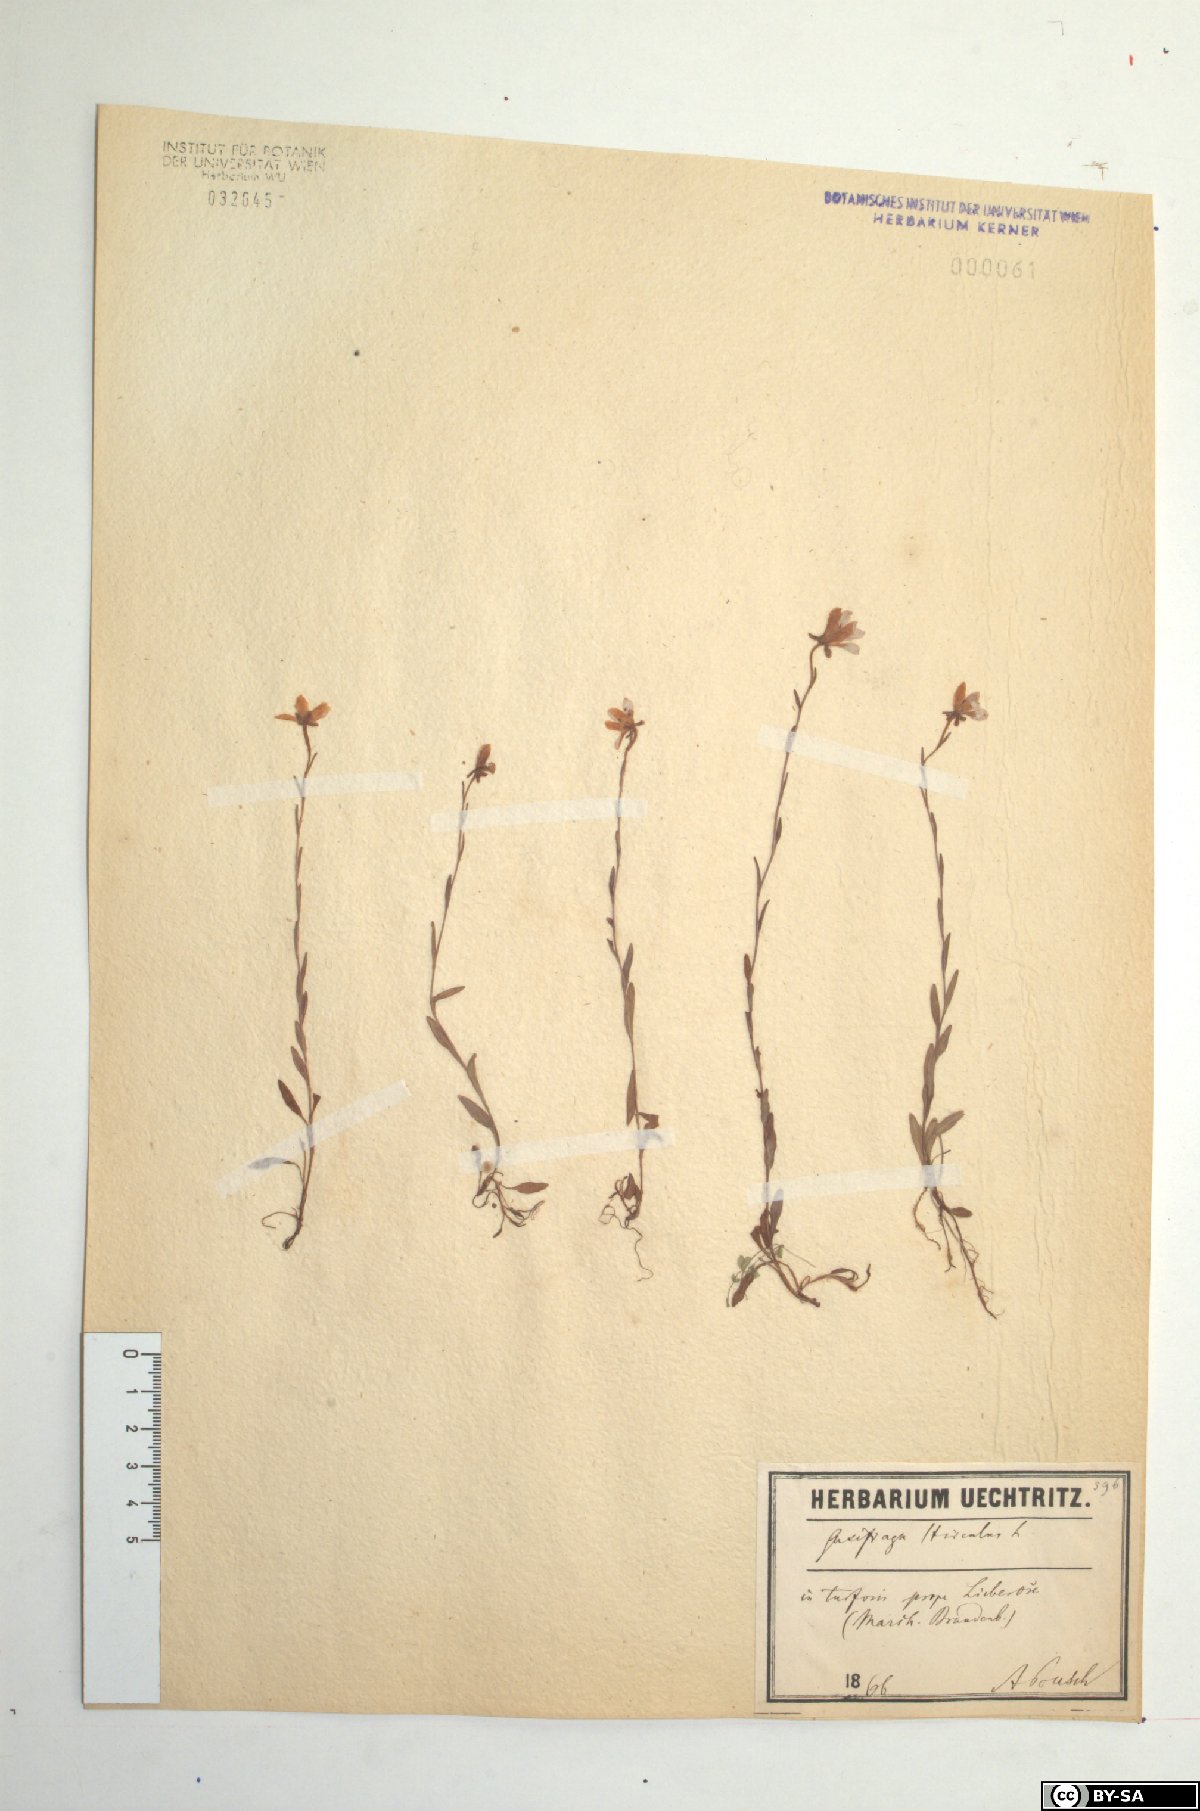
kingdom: Plantae
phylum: Tracheophyta
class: Magnoliopsida
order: Saxifragales
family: Saxifragaceae
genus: Saxifraga
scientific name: Saxifraga hirculus
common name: Yellow marsh saxifrage
